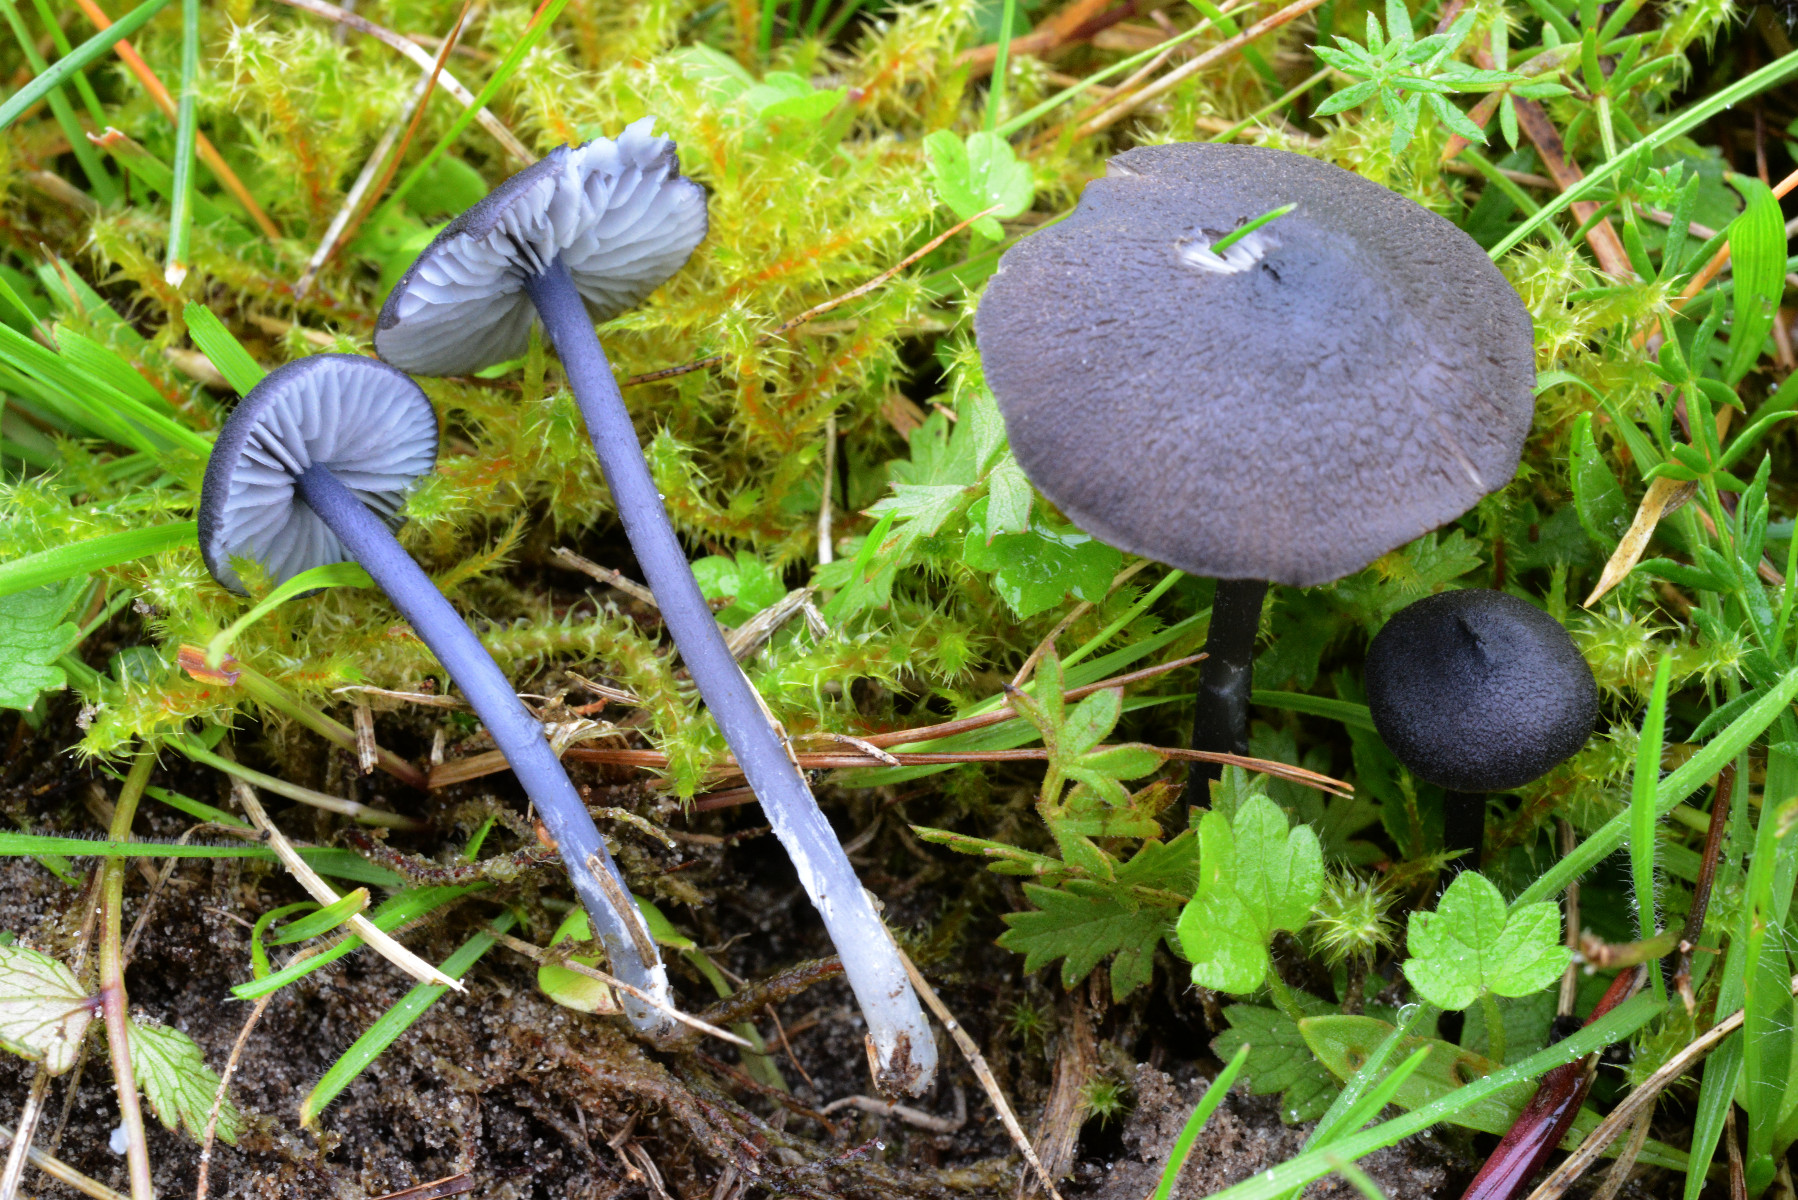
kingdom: Fungi
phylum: Basidiomycota
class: Agaricomycetes
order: Agaricales
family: Entolomataceae
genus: Entoloma
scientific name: Entoloma chalybeum
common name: blåbladet rødblad
